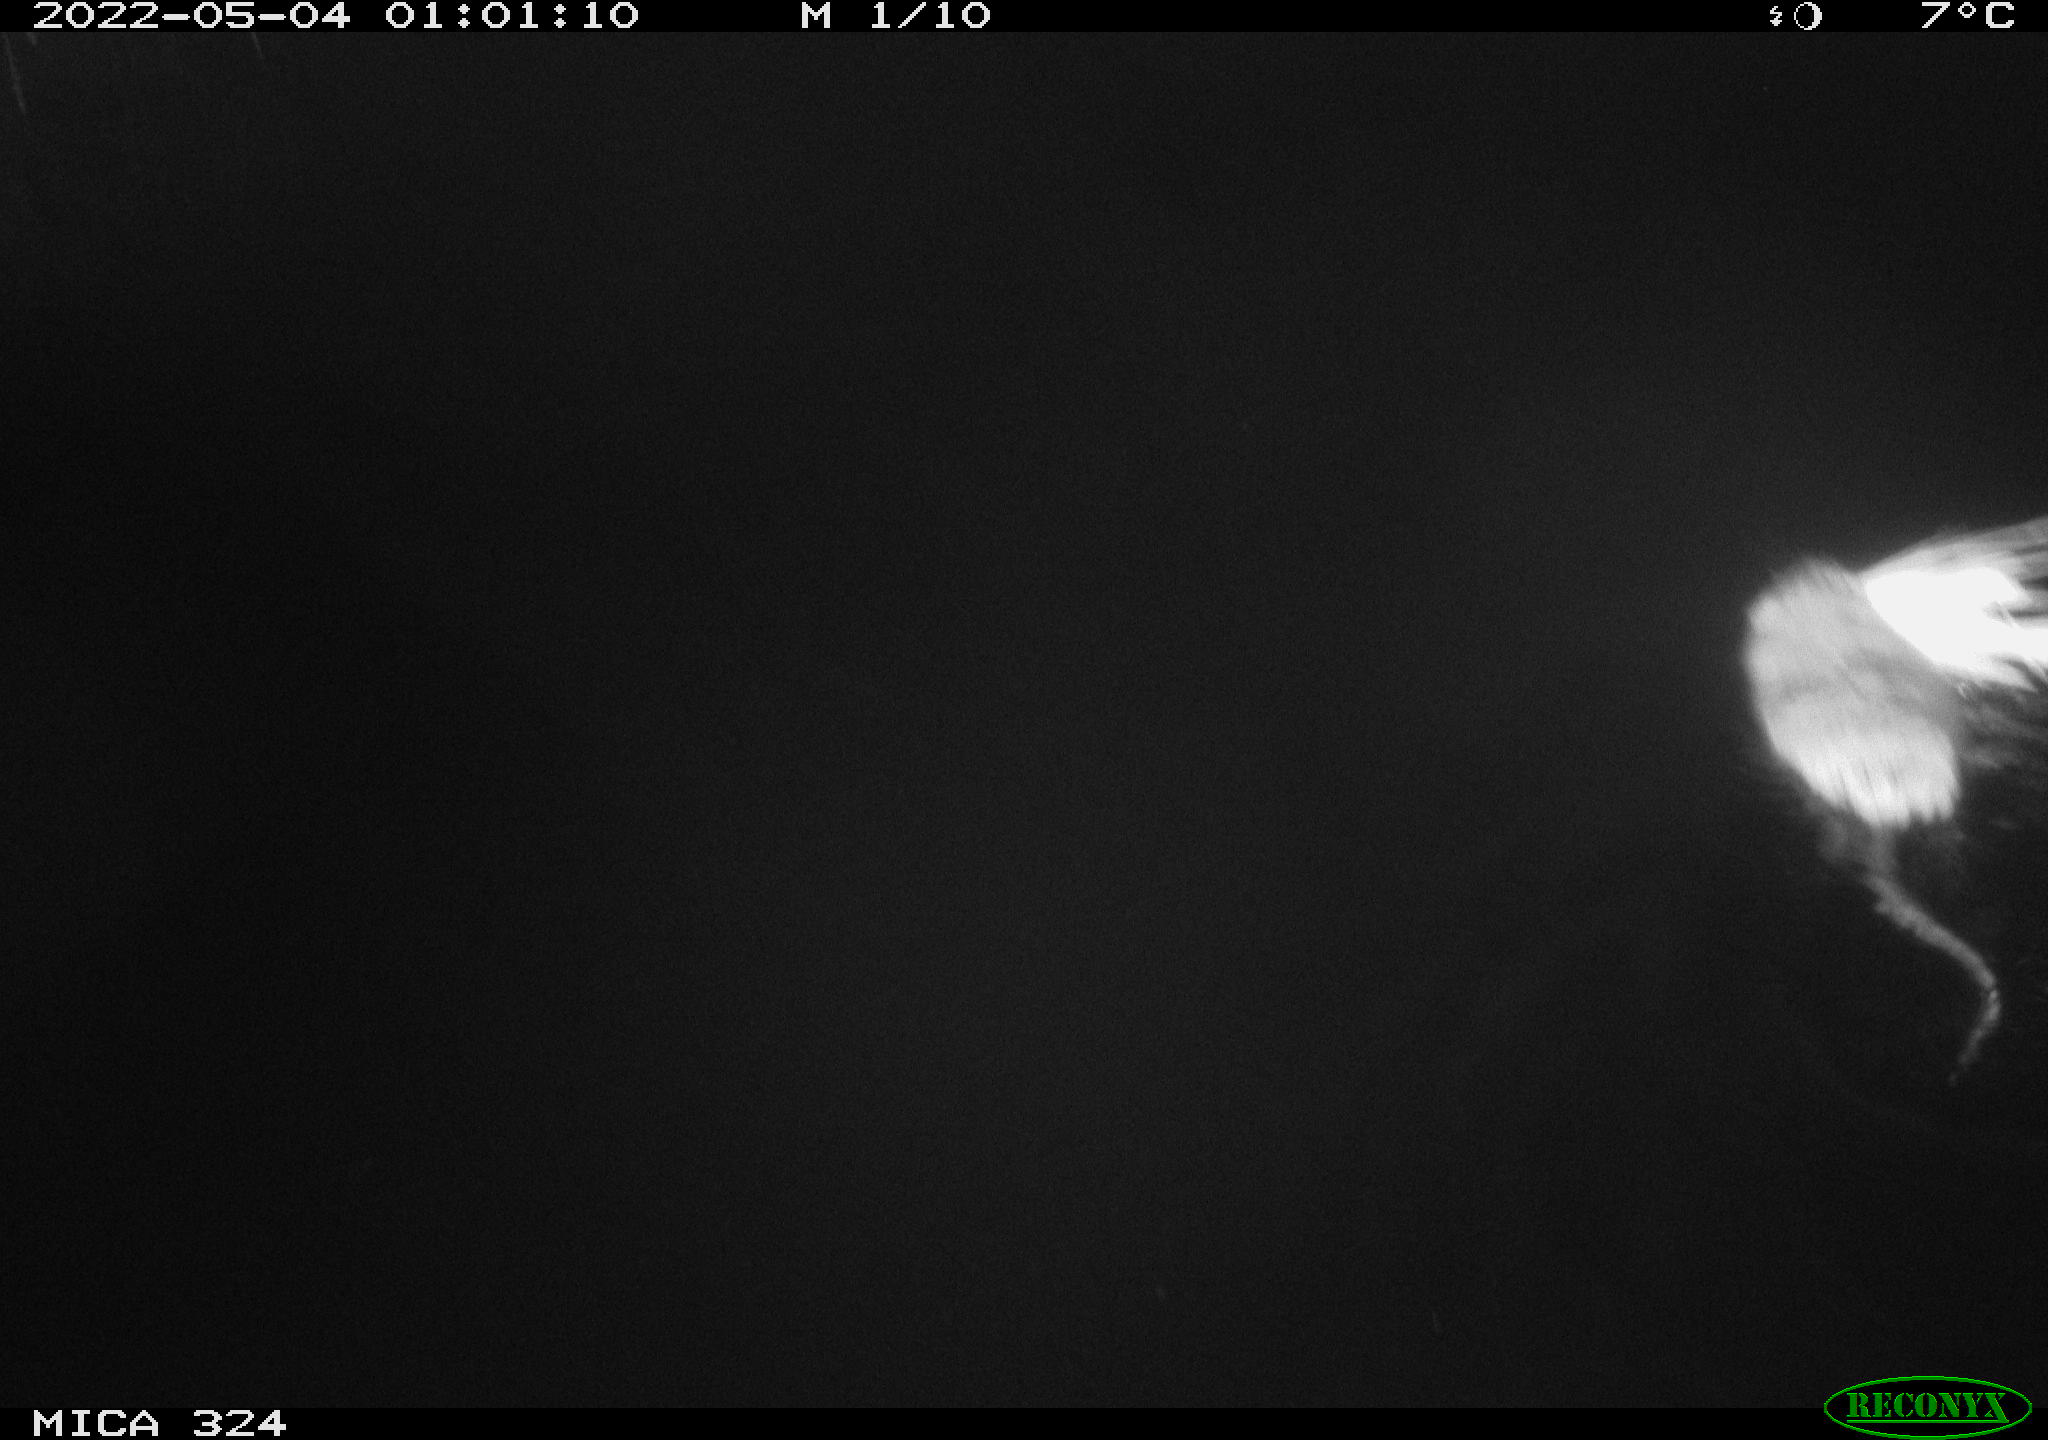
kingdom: Animalia
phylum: Chordata
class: Mammalia
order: Rodentia
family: Cricetidae
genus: Ondatra
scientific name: Ondatra zibethicus
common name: Muskrat
